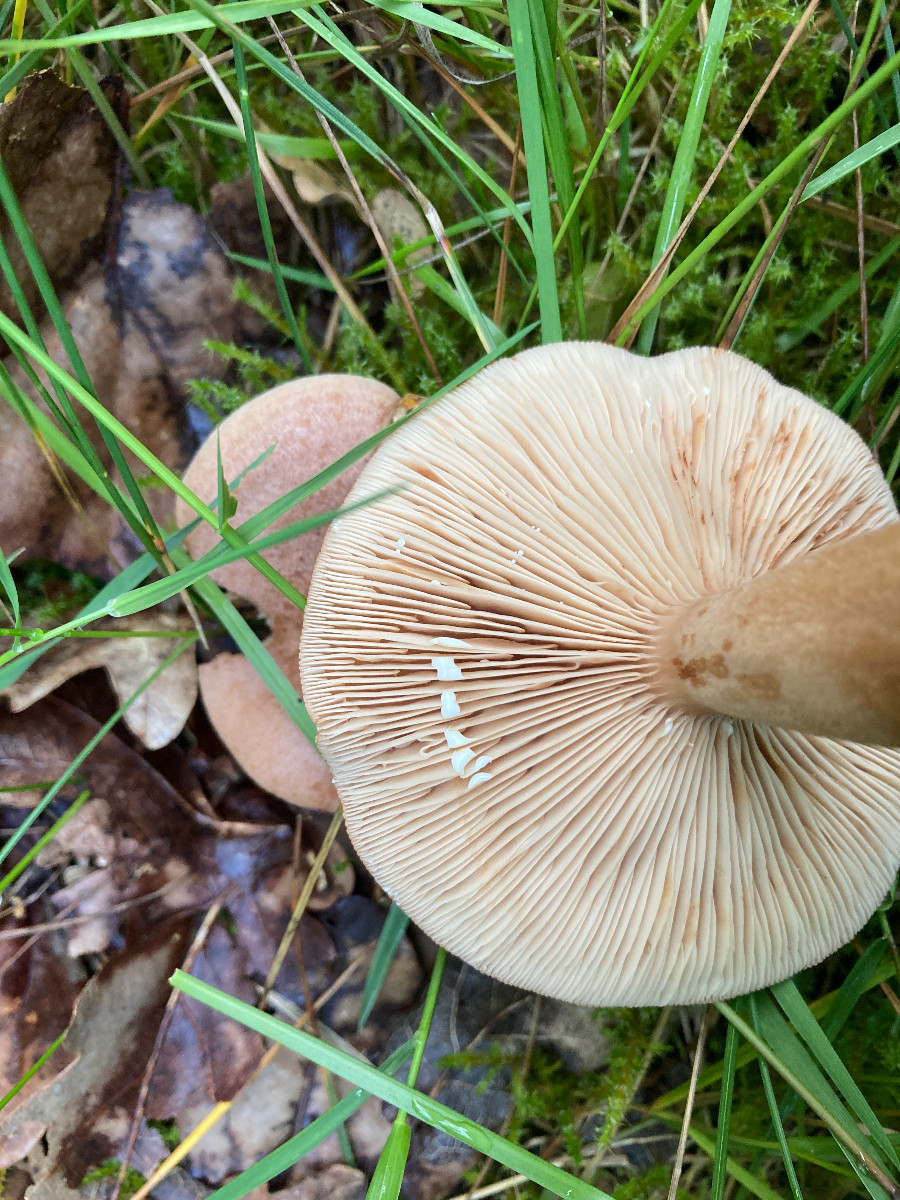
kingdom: Fungi
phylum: Basidiomycota
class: Agaricomycetes
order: Russulales
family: Russulaceae
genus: Lactarius
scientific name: Lactarius quietus
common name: ege-mælkehat
